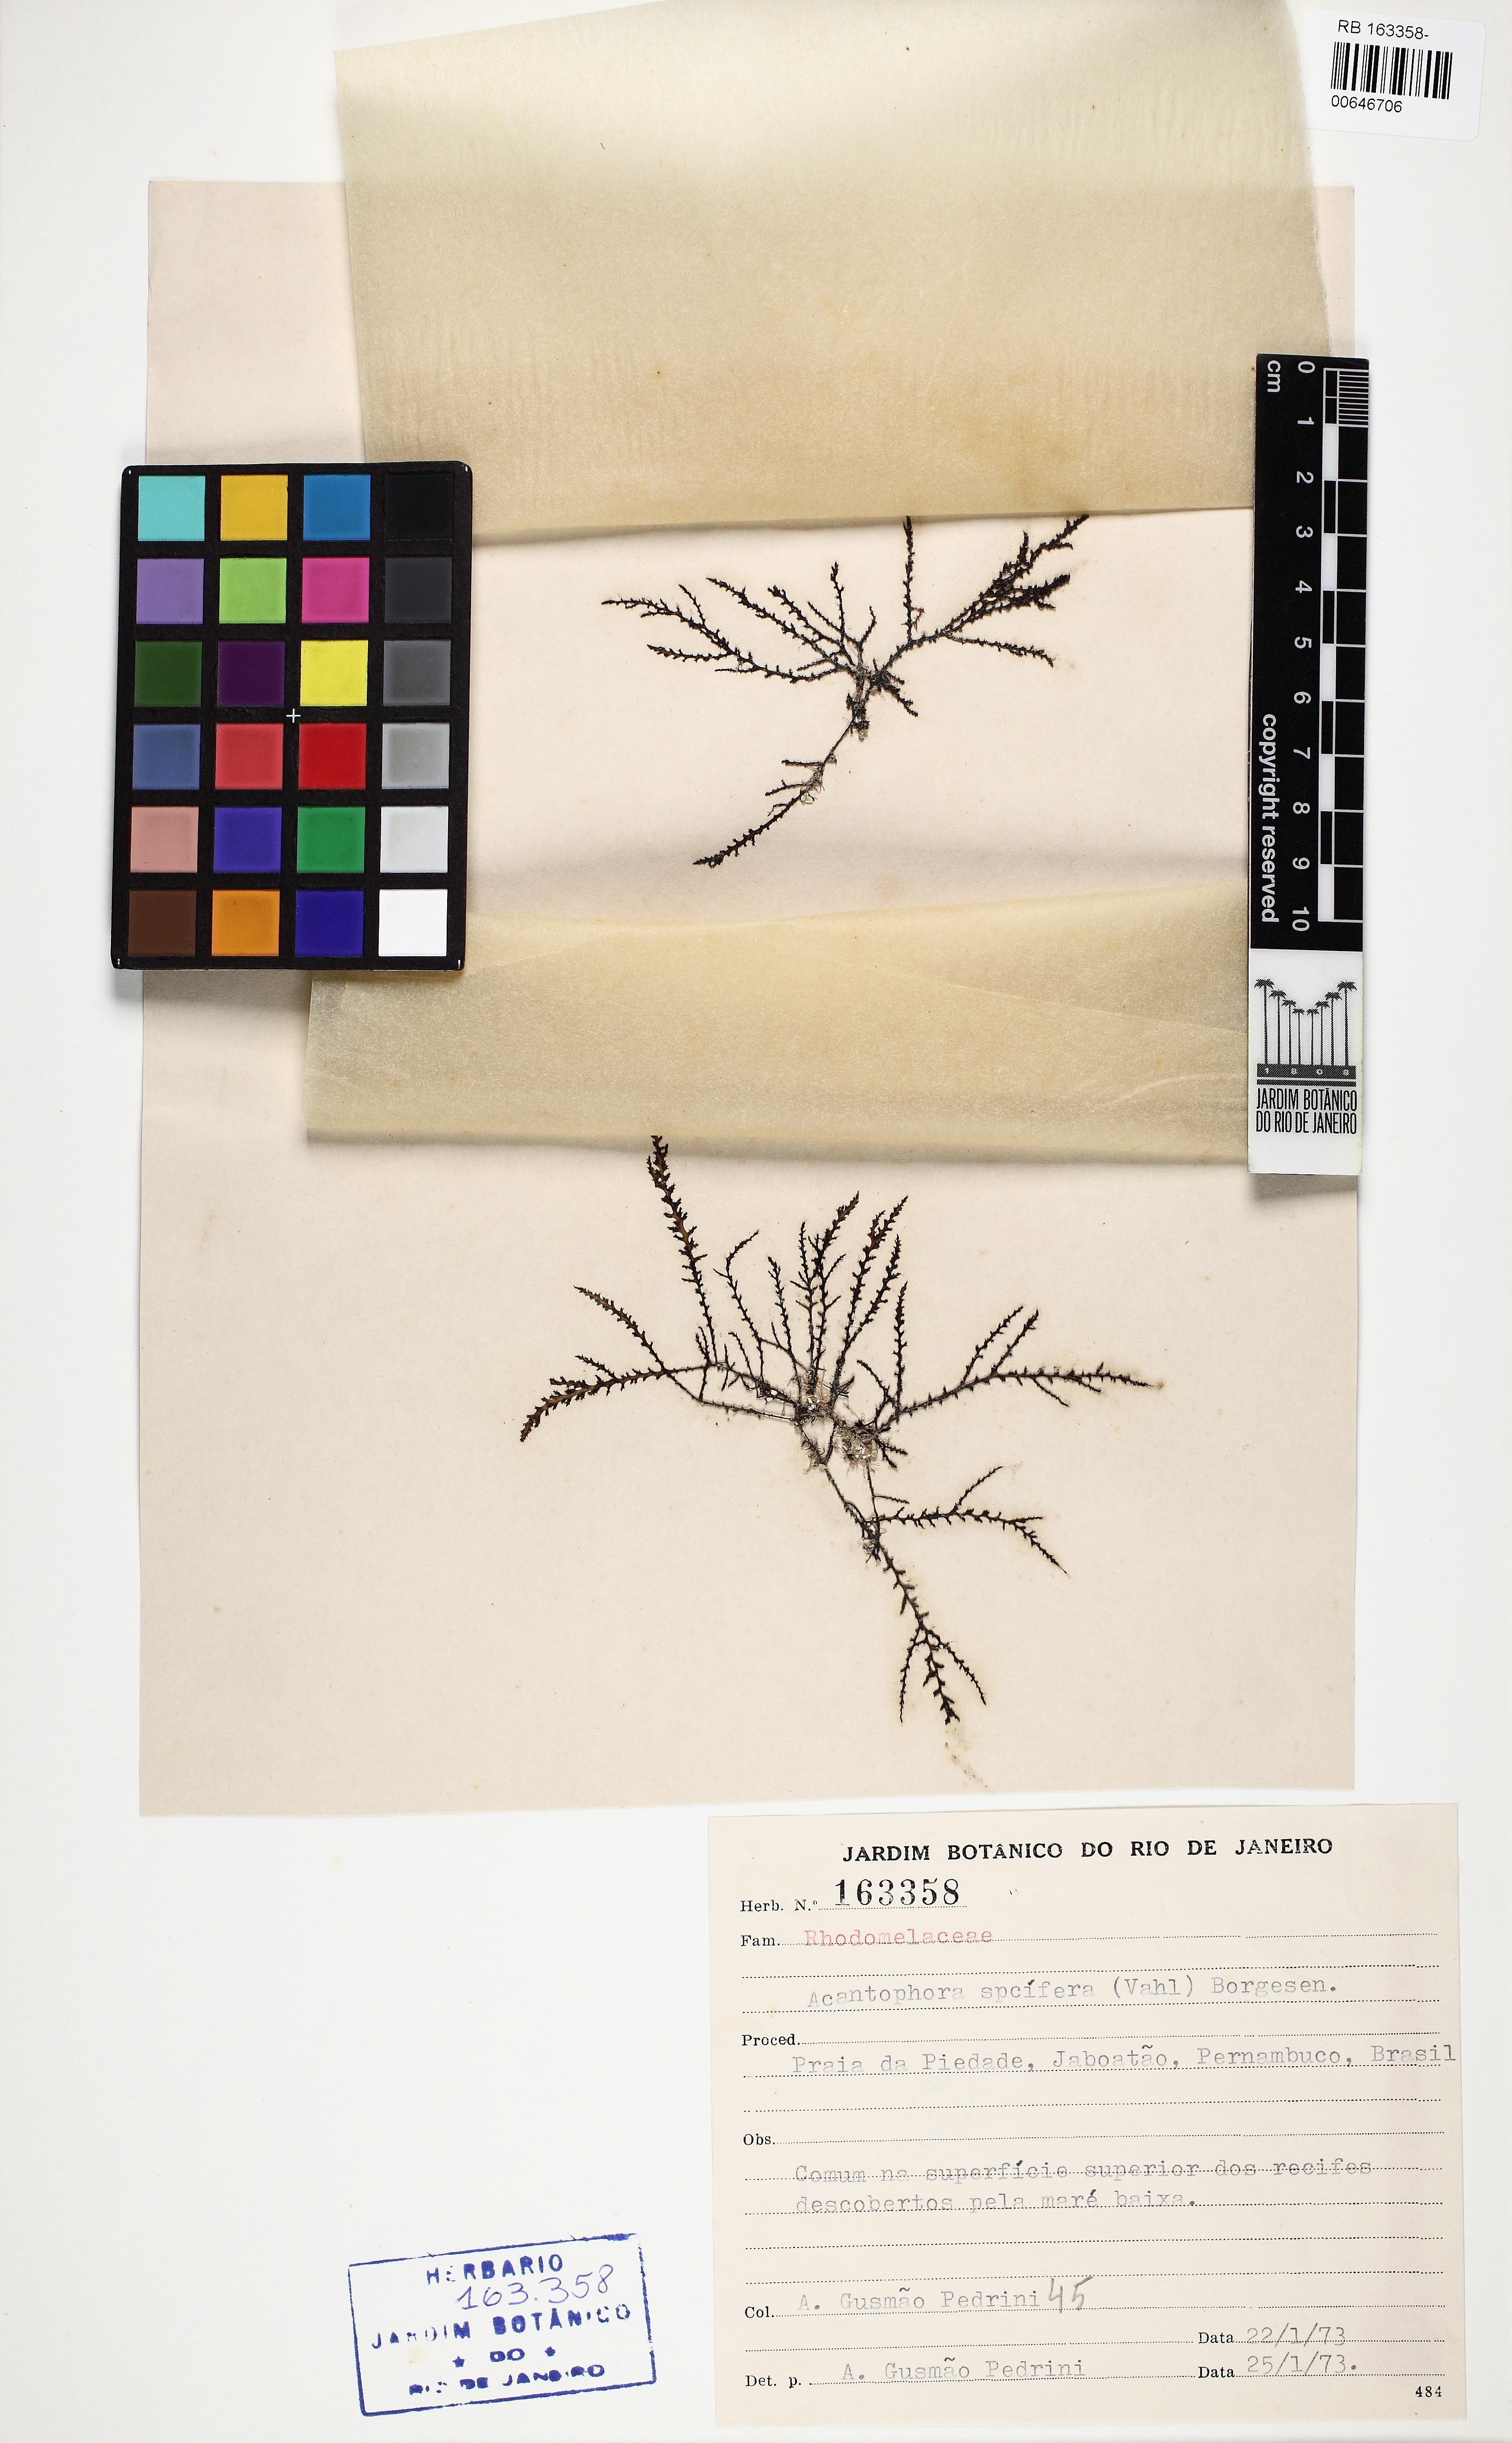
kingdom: Plantae
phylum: Rhodophyta
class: Florideophyceae
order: Ceramiales
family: Rhodomelaceae
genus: Acanthophora
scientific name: Acanthophora spicifera
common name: Red algae
